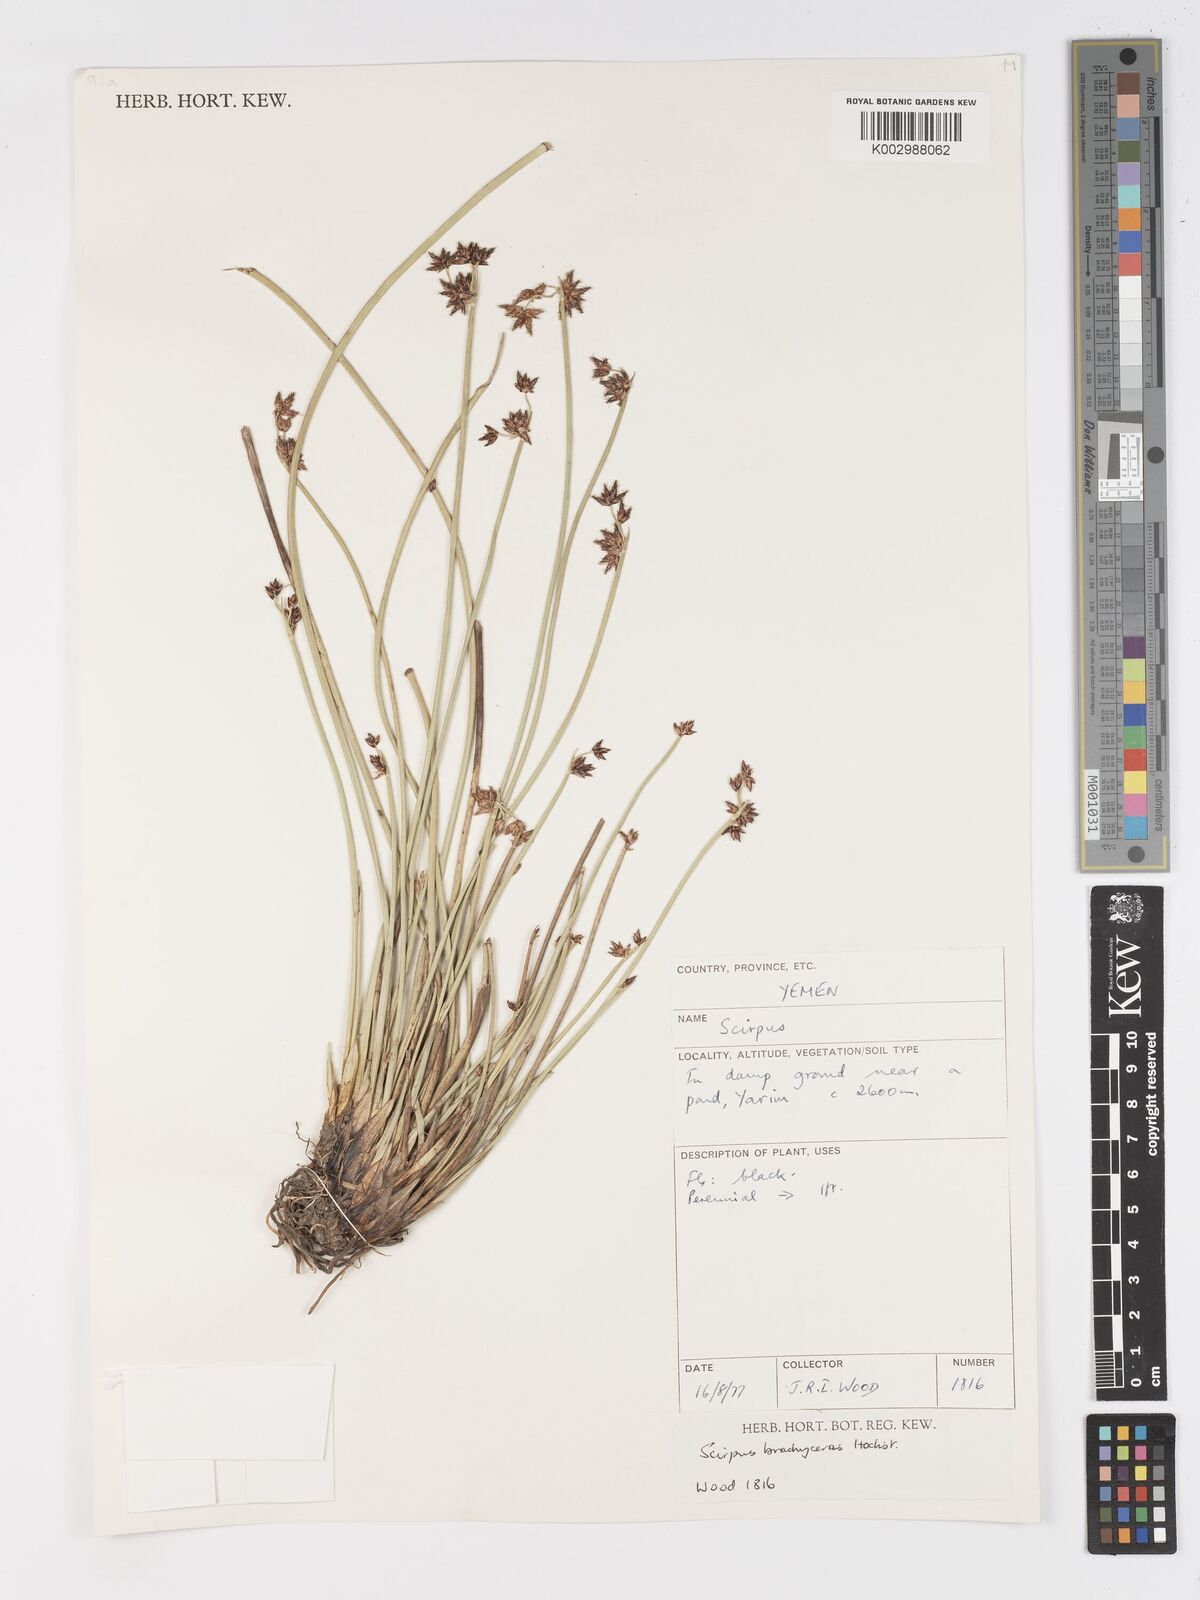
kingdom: Plantae
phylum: Tracheophyta
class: Liliopsida
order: Poales
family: Cyperaceae
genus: Schoenoplectiella
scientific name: Schoenoplectiella brachyceras
